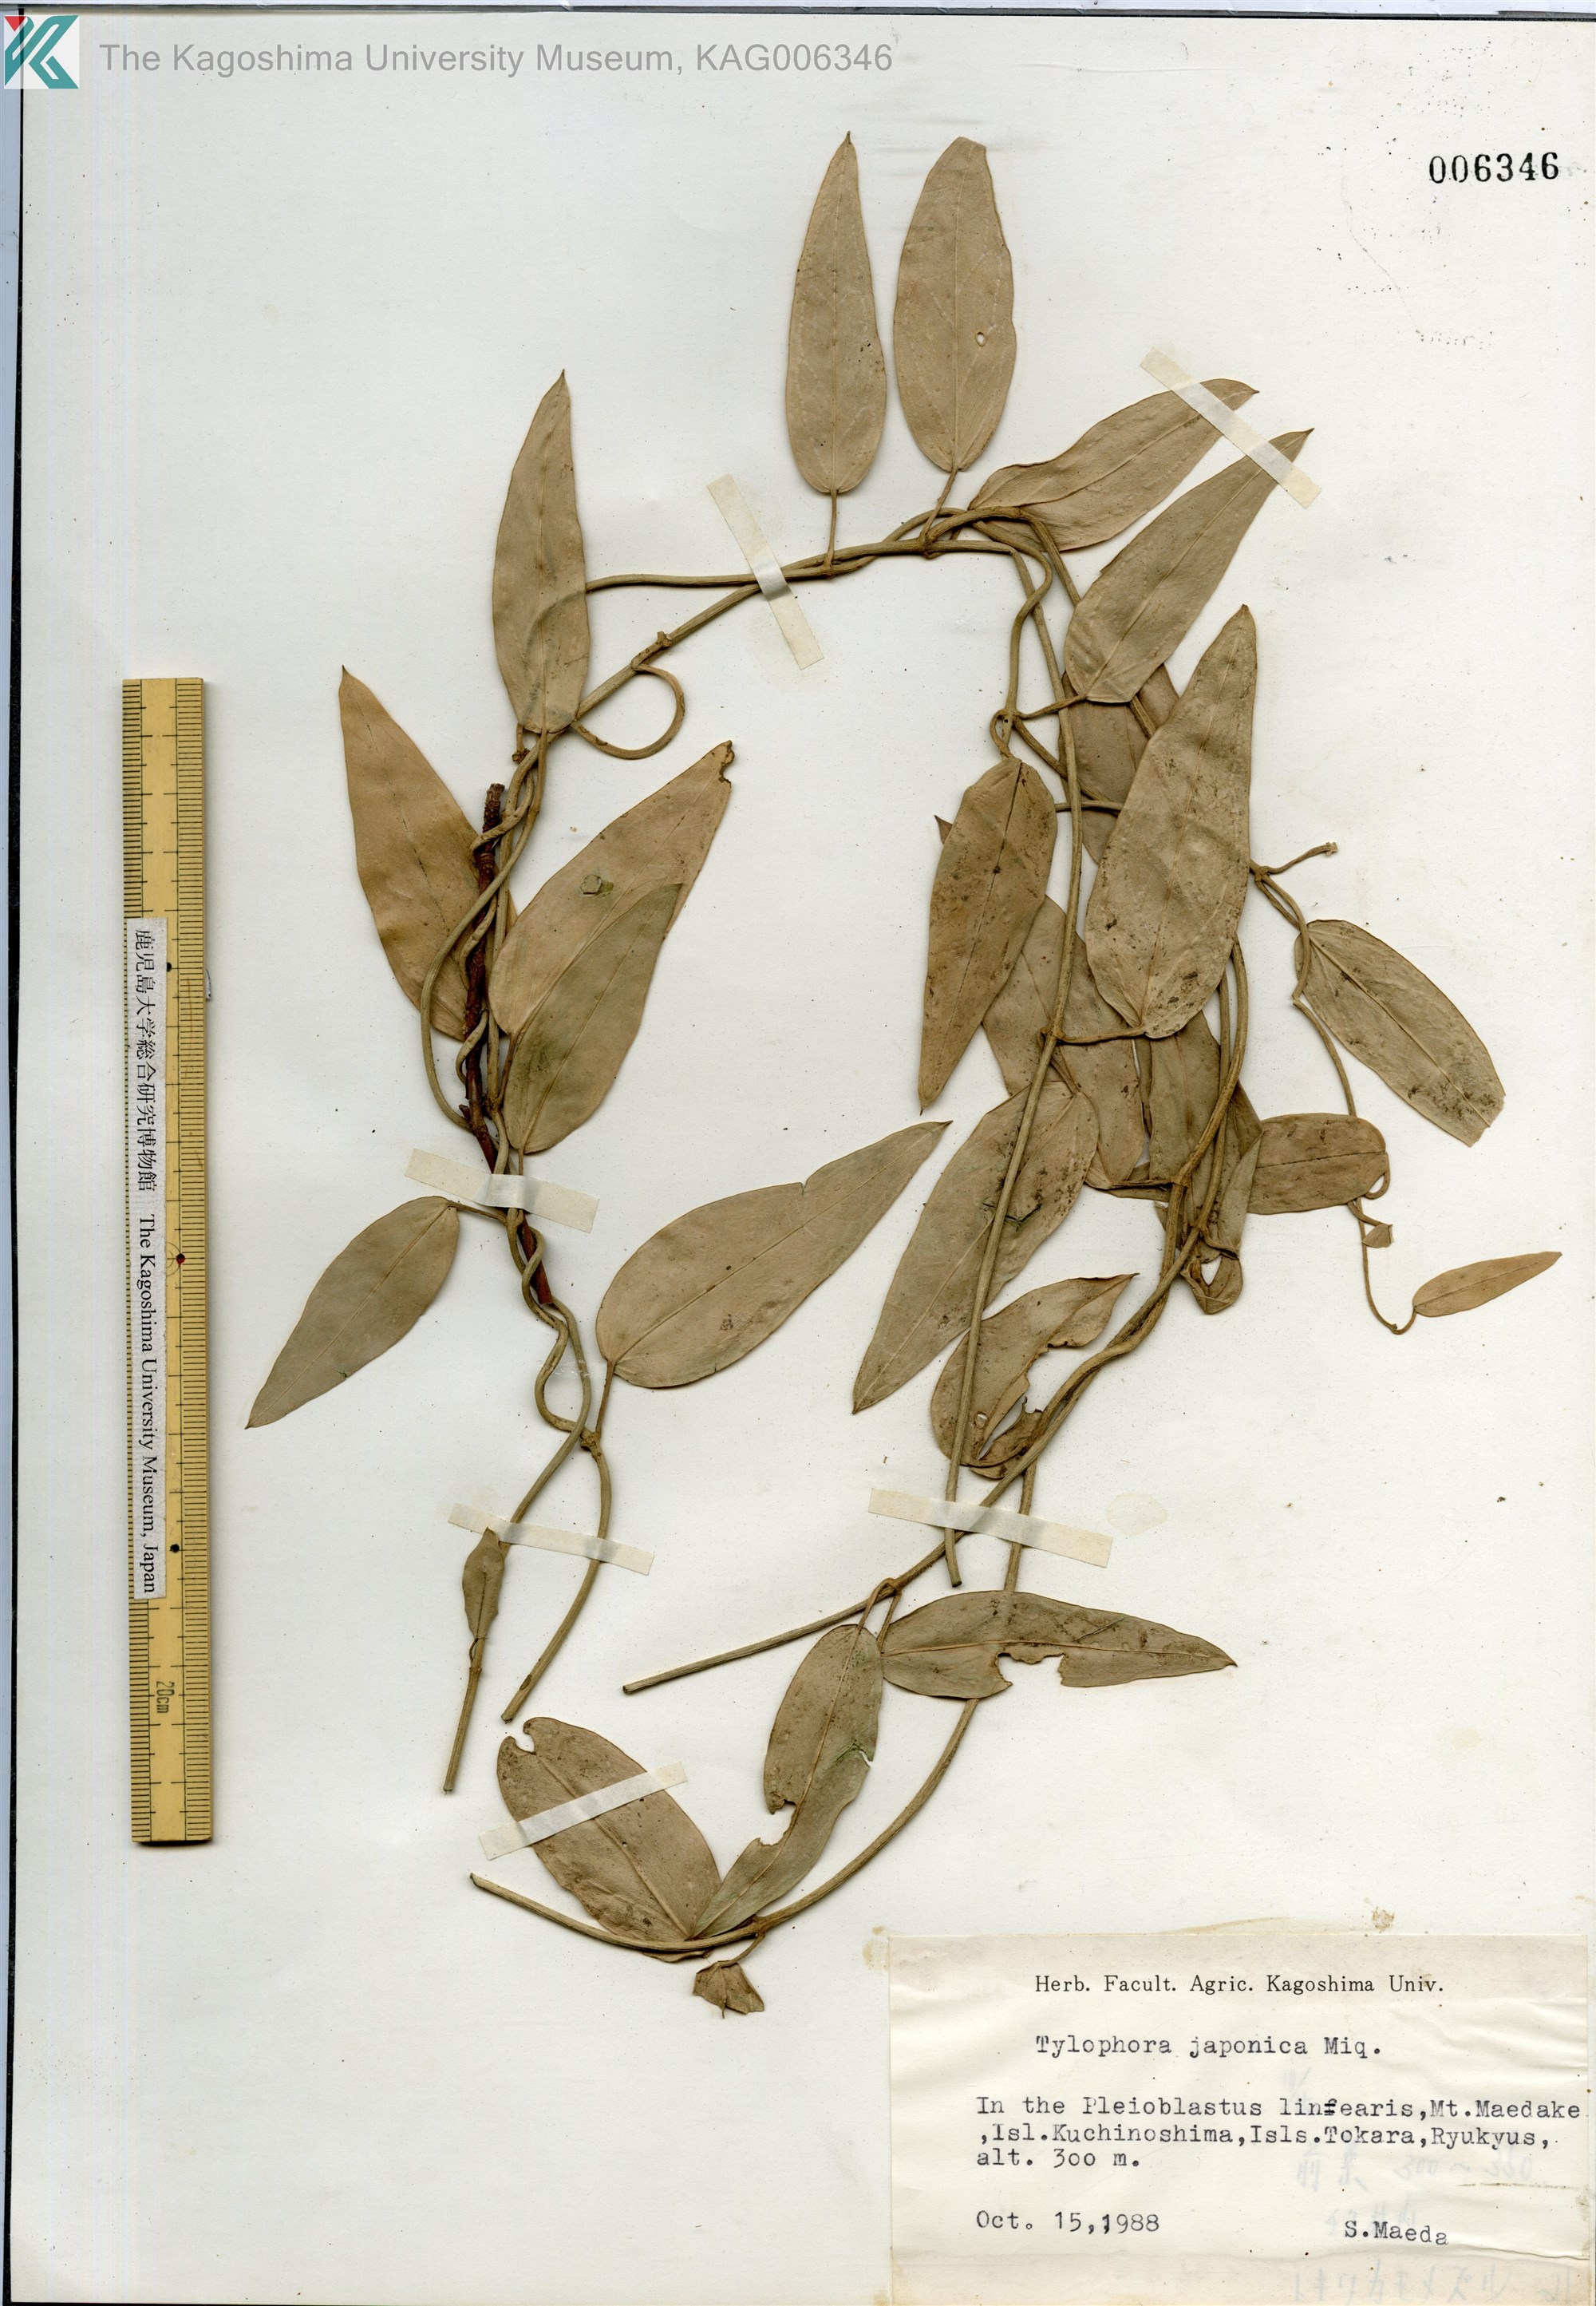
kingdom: Plantae
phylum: Tracheophyta
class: Magnoliopsida
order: Gentianales
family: Apocynaceae
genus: Vincetoxicum
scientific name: Vincetoxicum sieboldii
